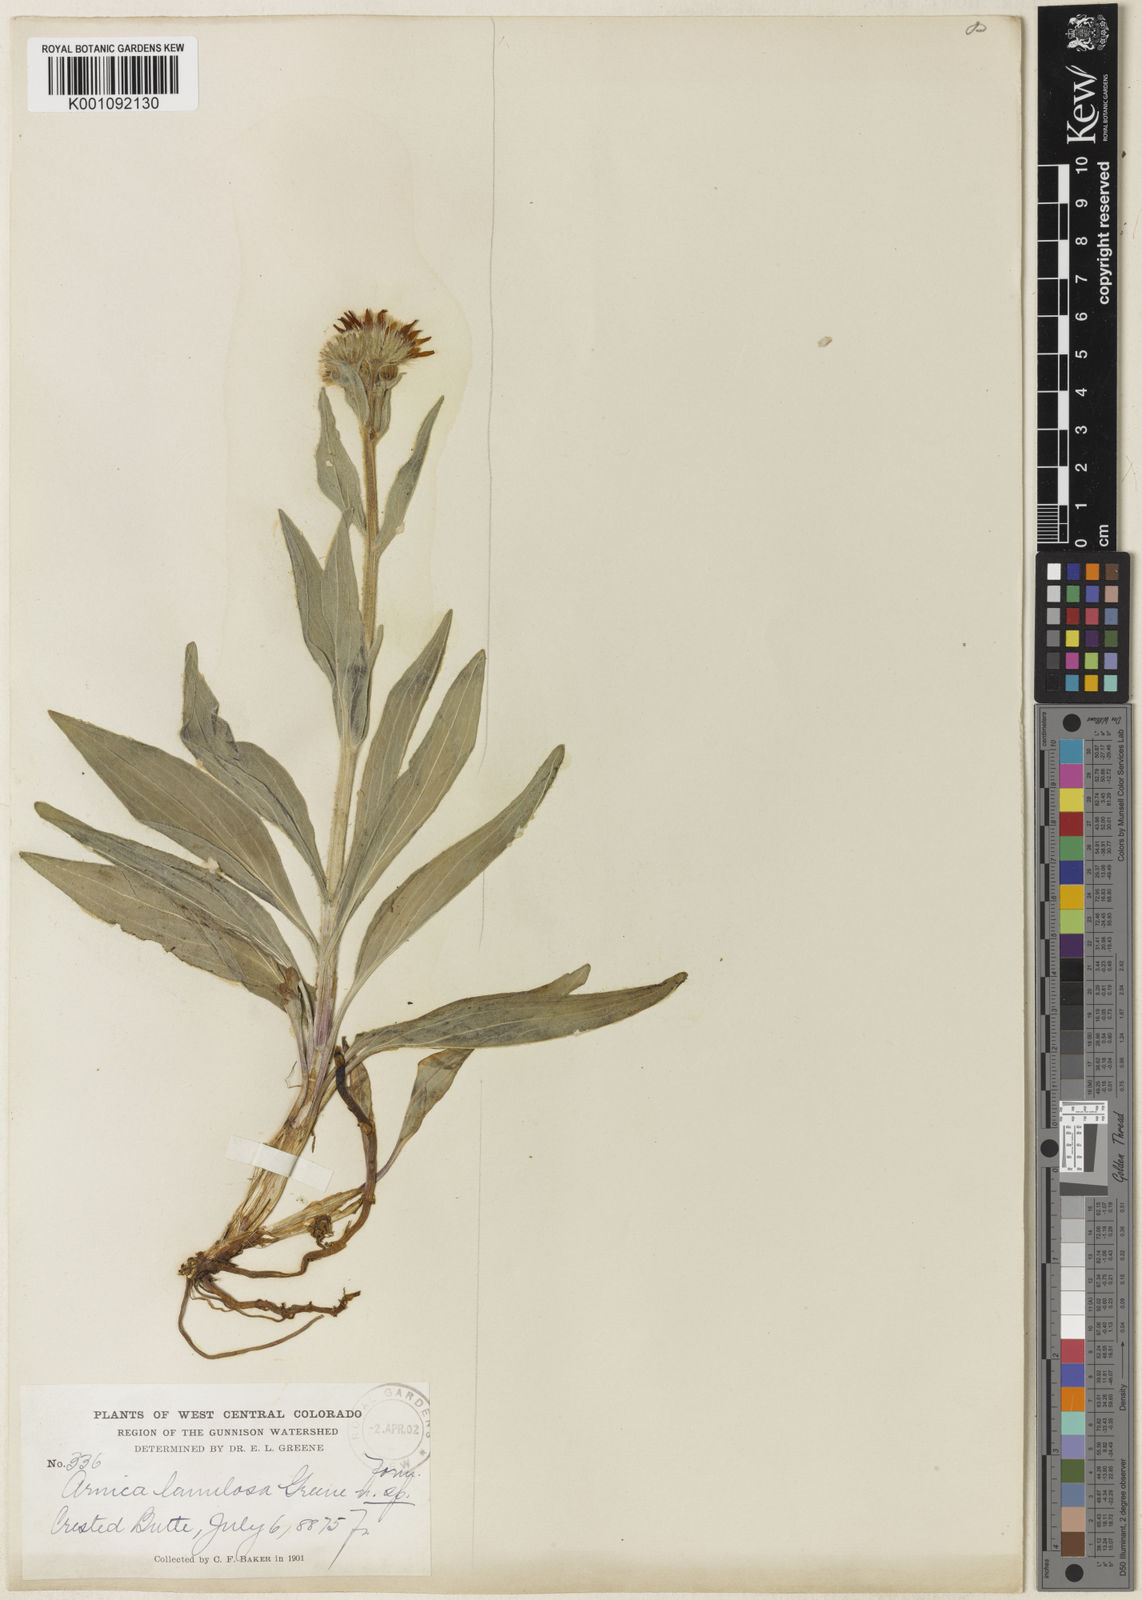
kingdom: Plantae
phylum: Tracheophyta
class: Magnoliopsida
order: Asterales
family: Asteraceae
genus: Arnica
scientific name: Arnica chamissonis
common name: Leafy arnica
